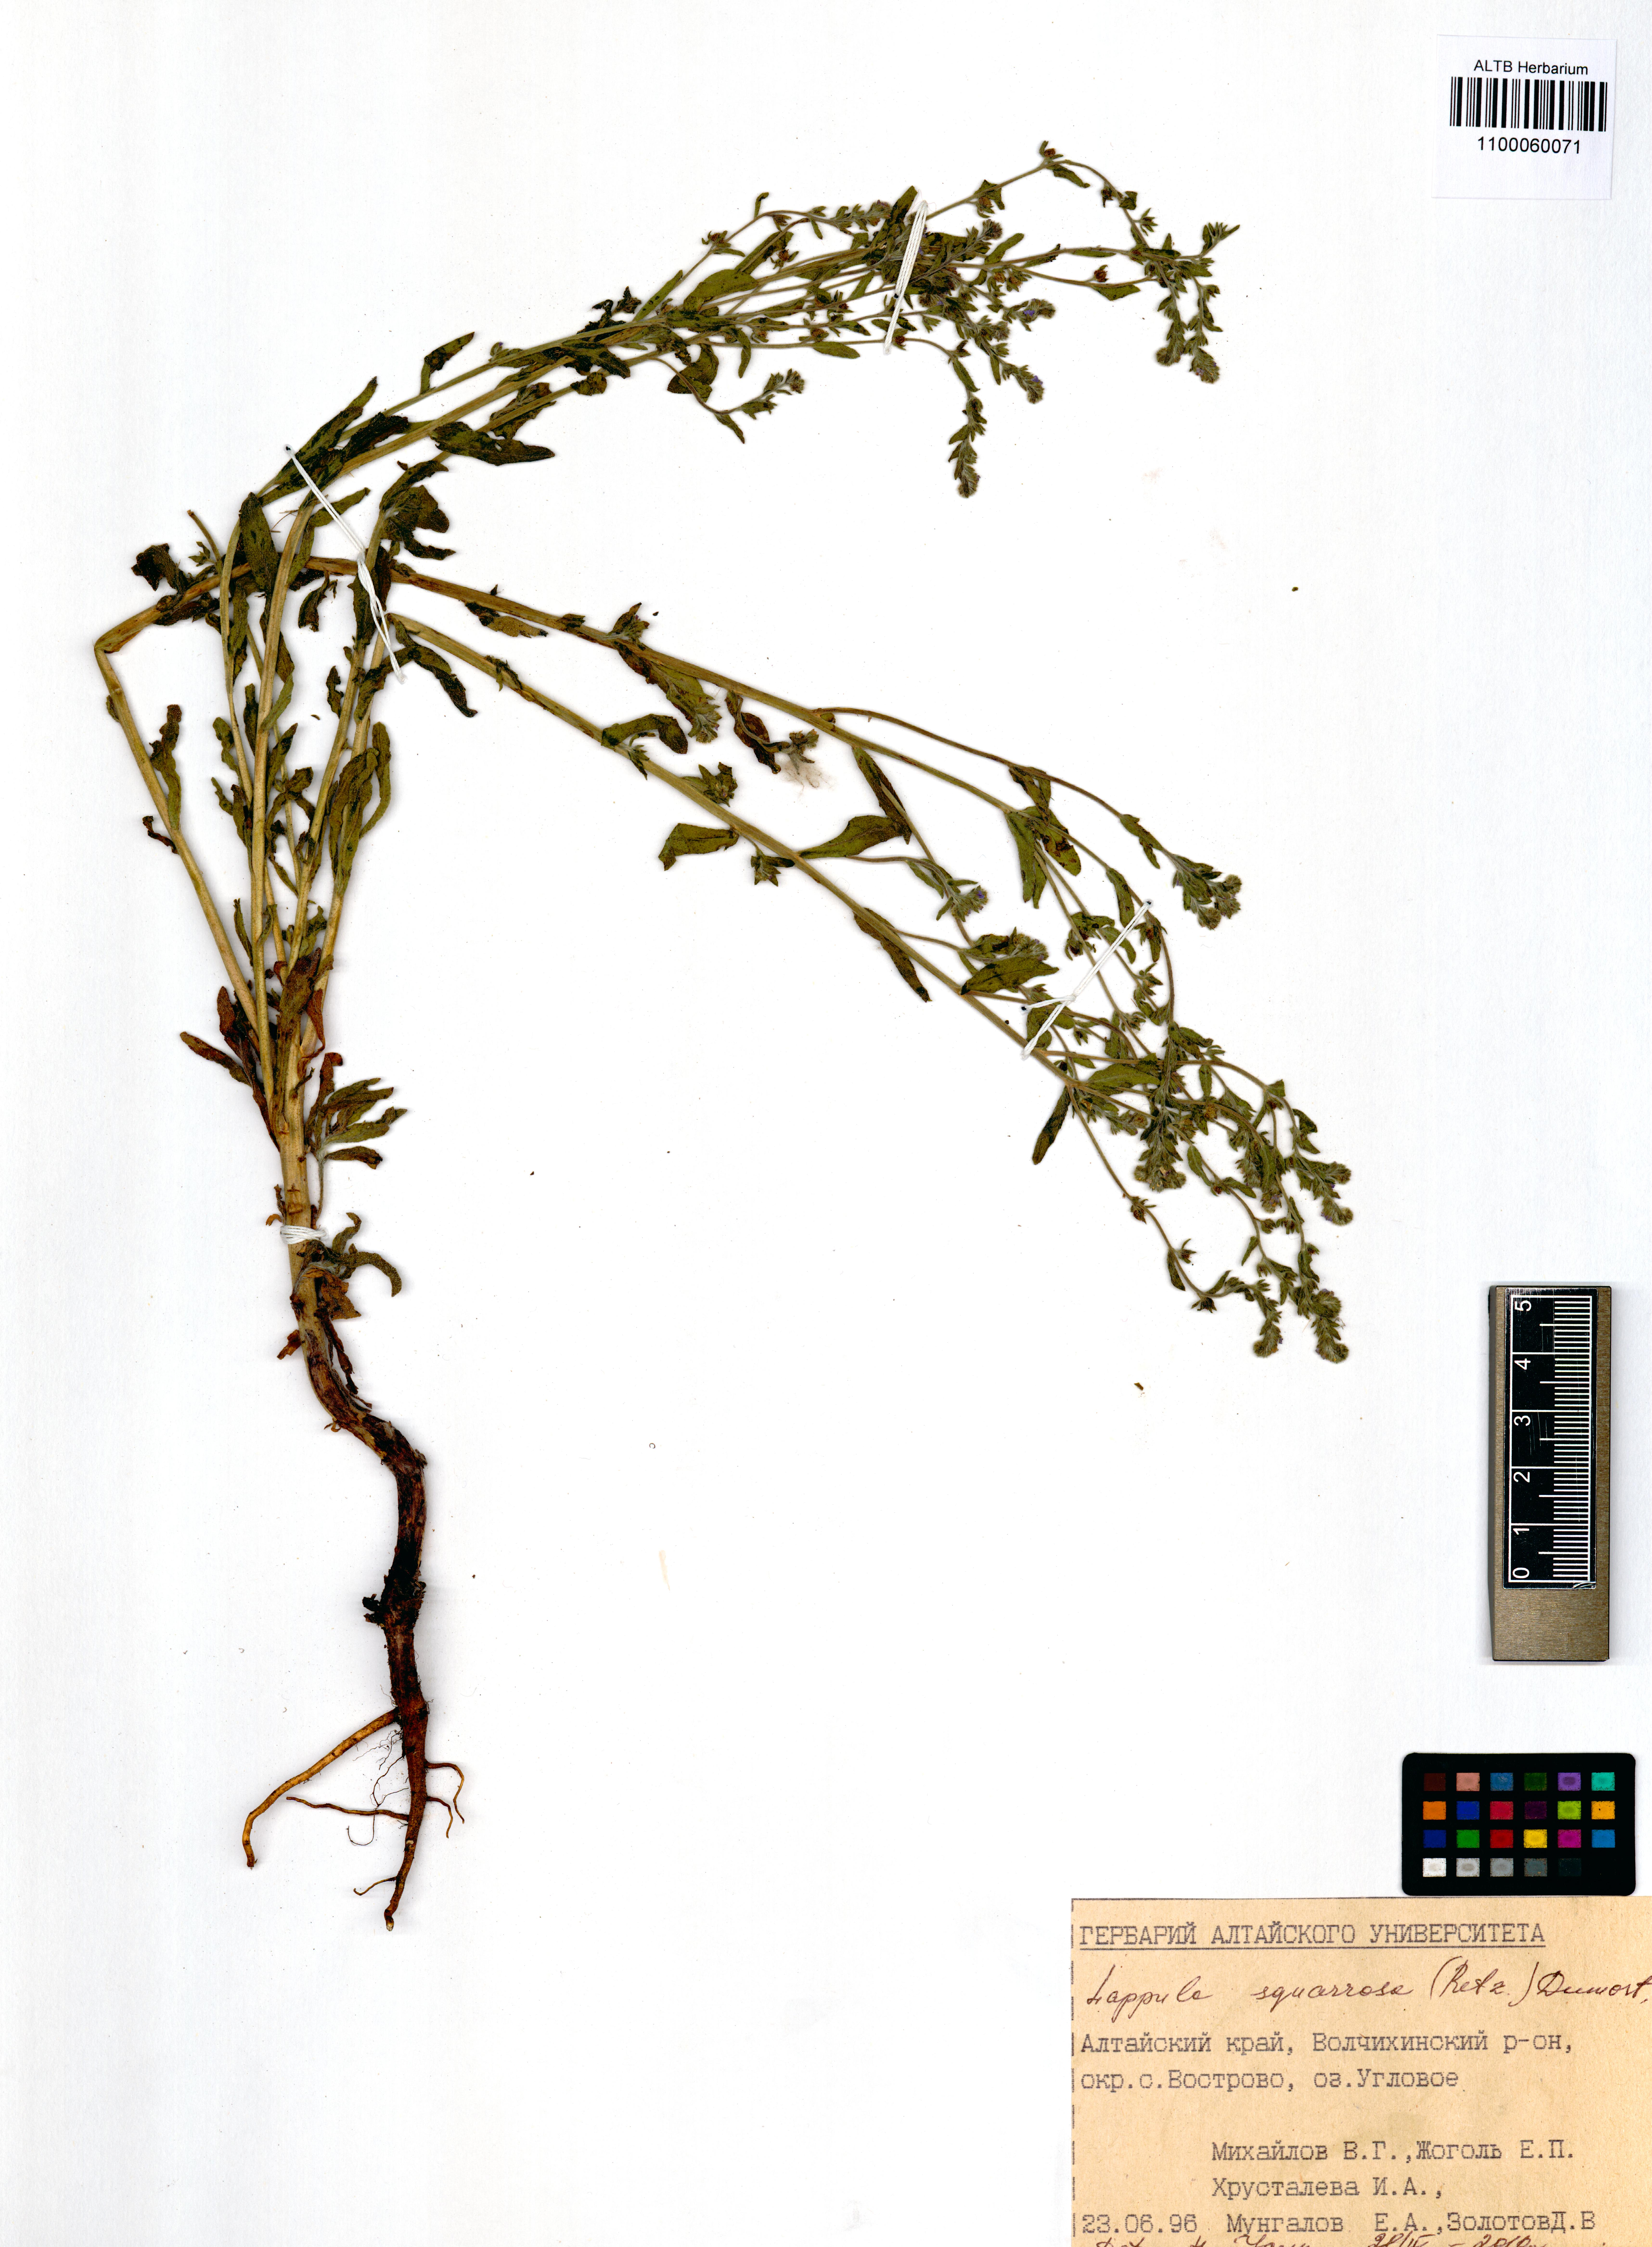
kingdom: Plantae
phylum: Tracheophyta
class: Magnoliopsida
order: Boraginales
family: Boraginaceae
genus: Lappula
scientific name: Lappula squarrosa
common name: European stickseed
